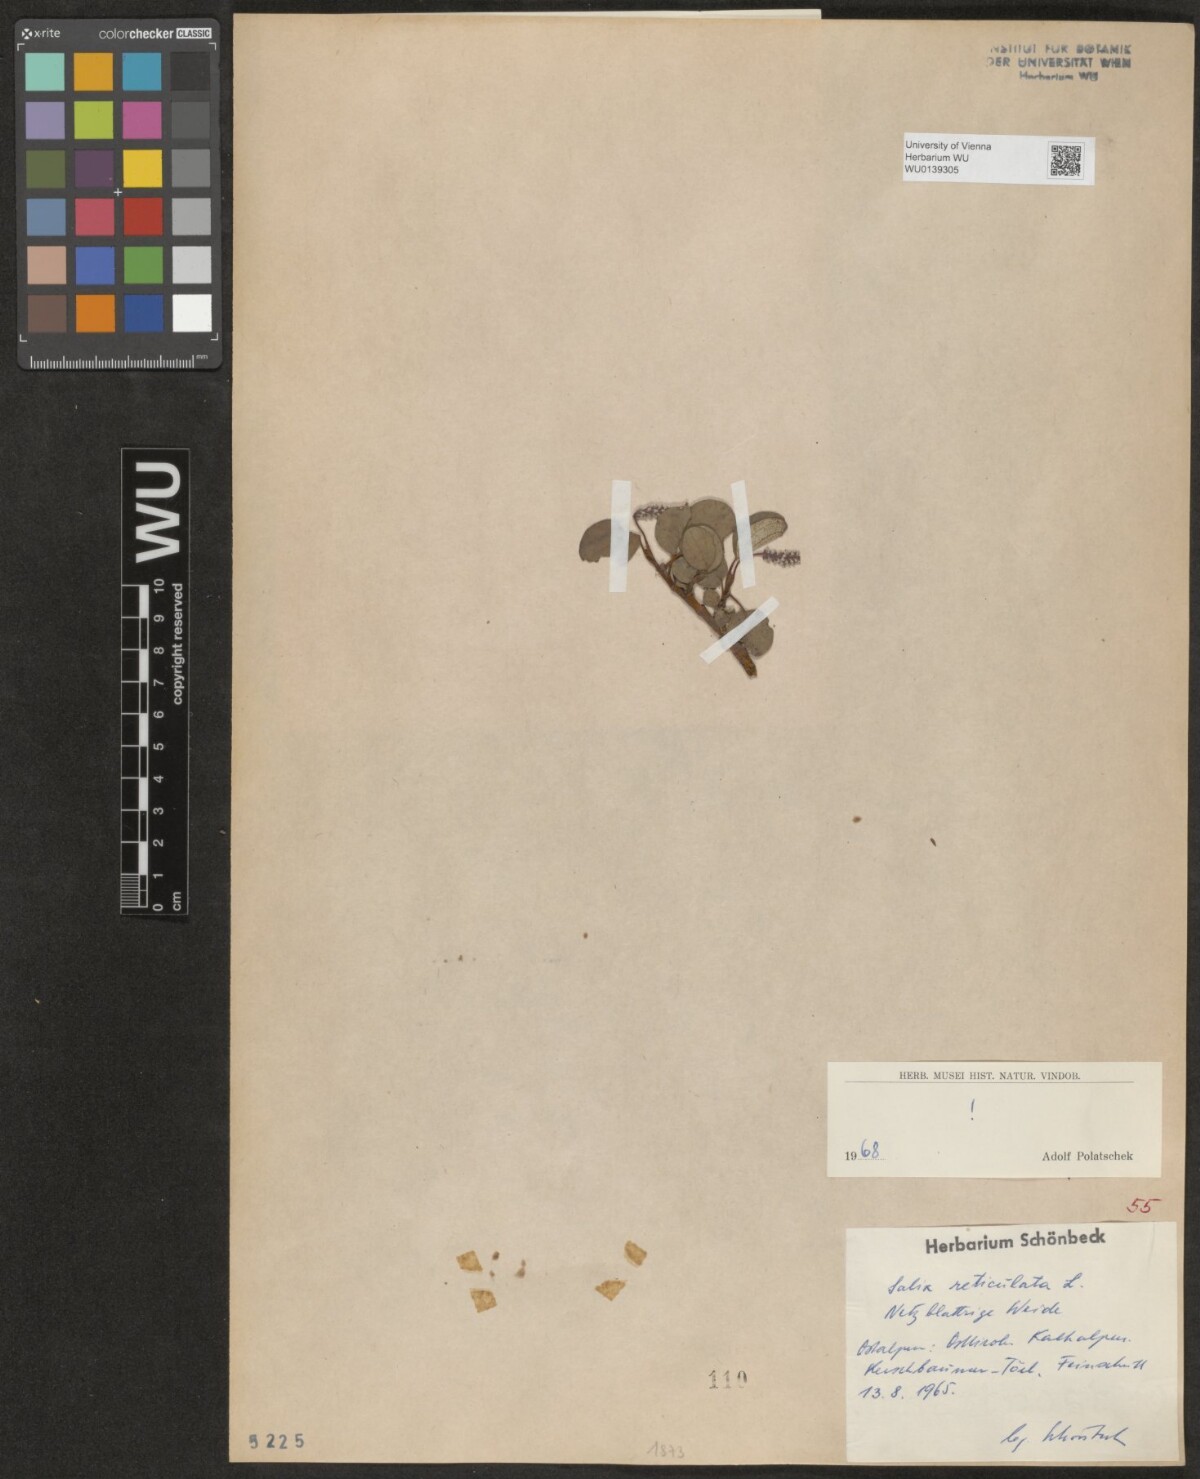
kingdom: Plantae
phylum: Tracheophyta
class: Magnoliopsida
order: Malpighiales
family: Salicaceae
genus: Salix
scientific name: Salix reticulata
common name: Net-leaved willow
